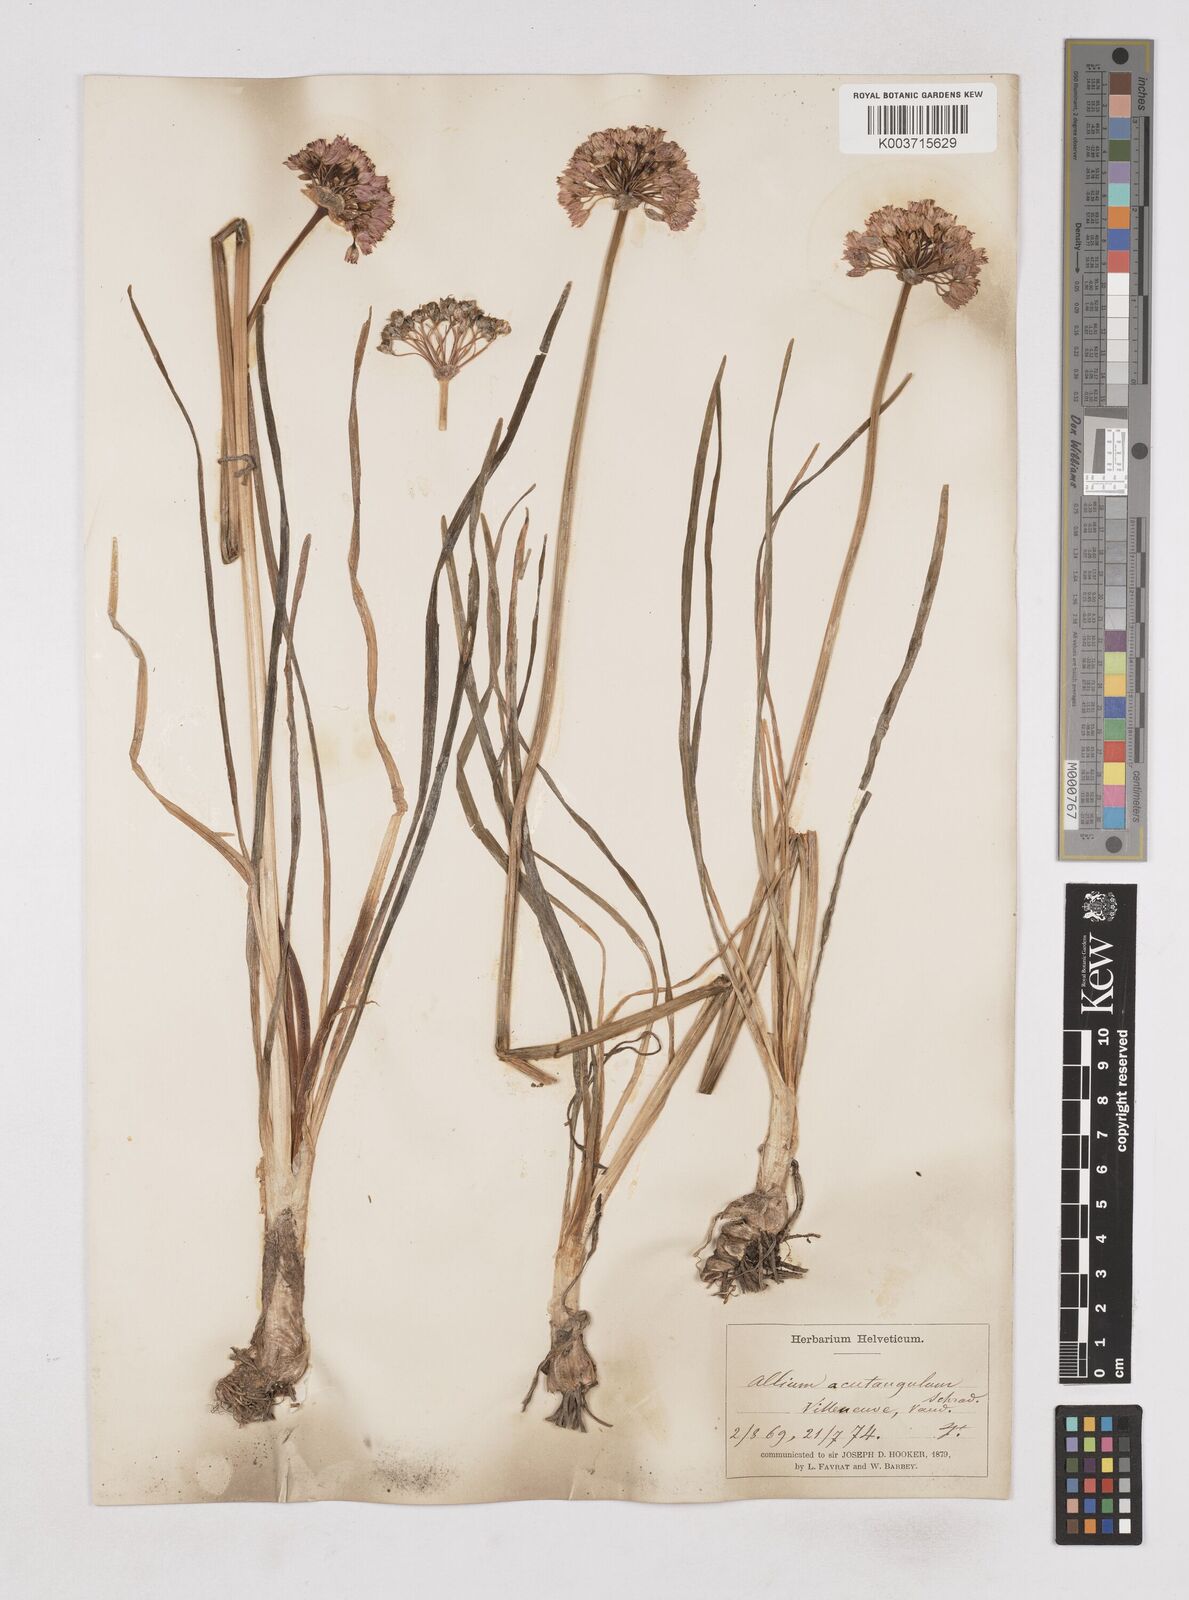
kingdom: Plantae
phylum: Tracheophyta
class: Liliopsida
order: Asparagales
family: Amaryllidaceae
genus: Allium
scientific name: Allium angulosum
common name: Mouse garlic
